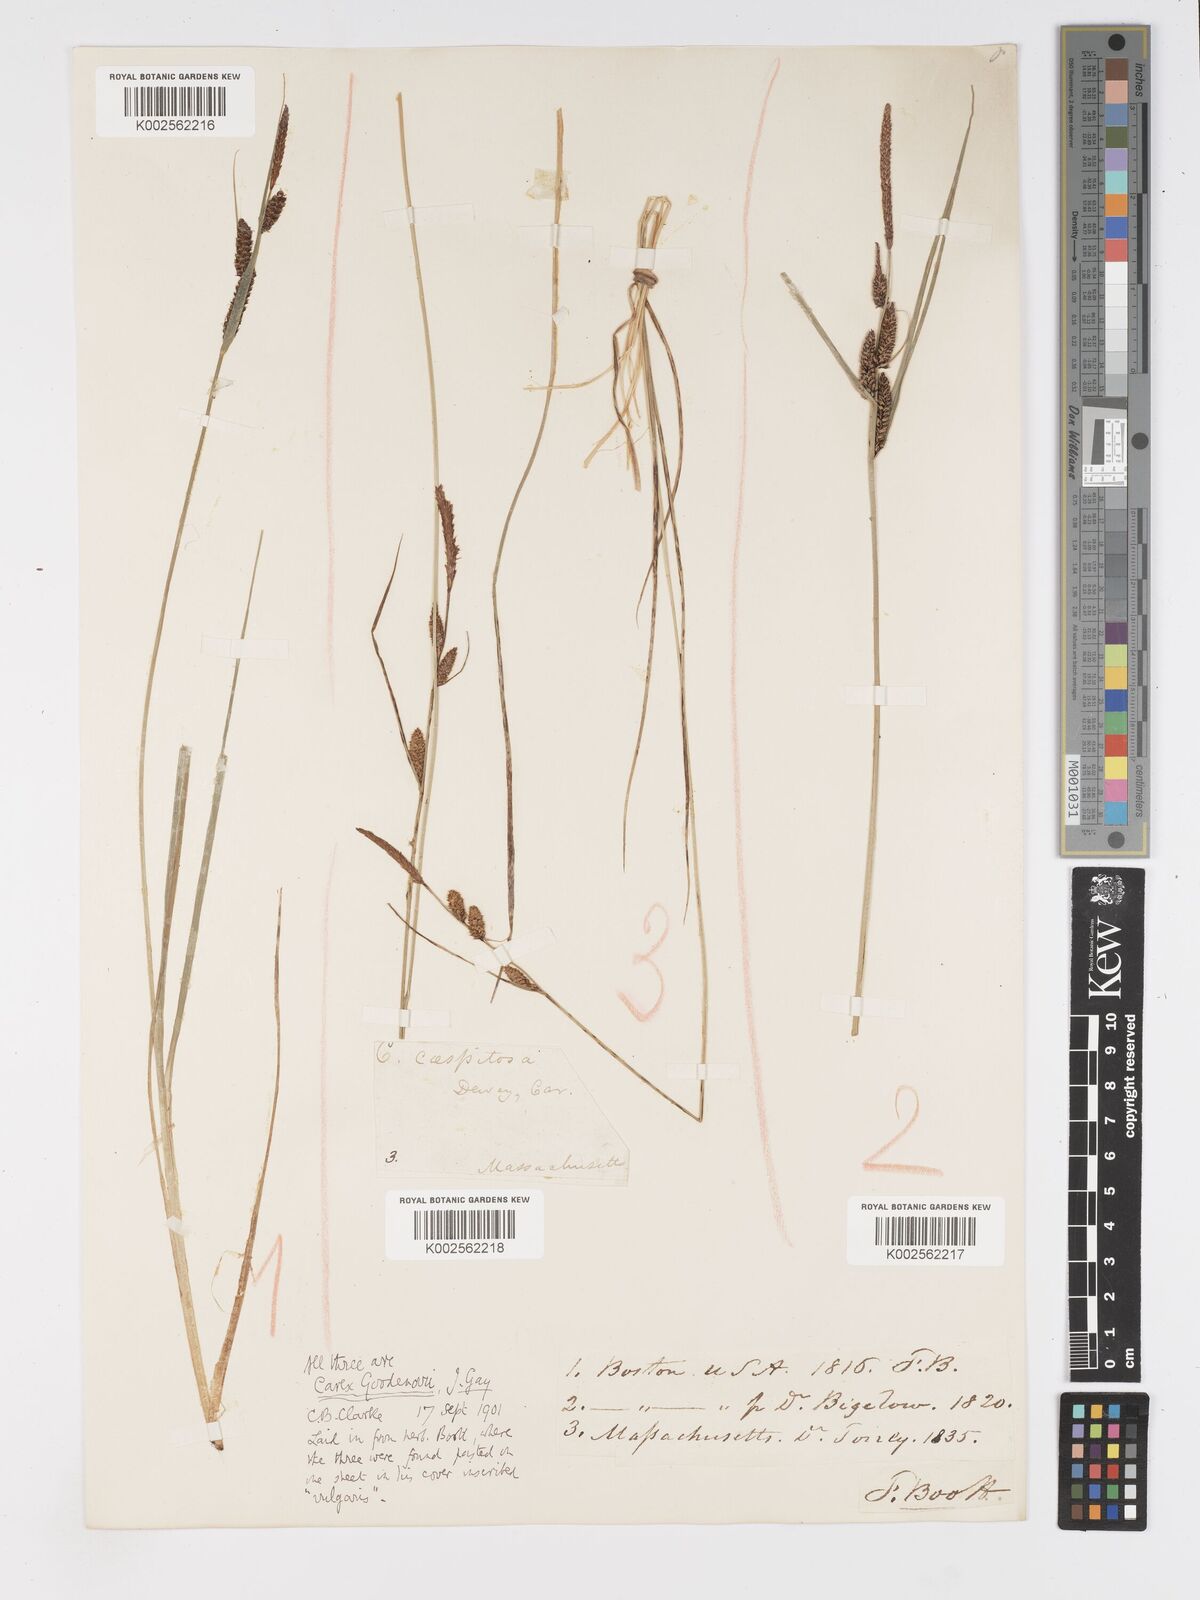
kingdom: Plantae
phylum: Tracheophyta
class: Liliopsida
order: Poales
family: Cyperaceae
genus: Carex
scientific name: Carex nigra
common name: Common sedge
